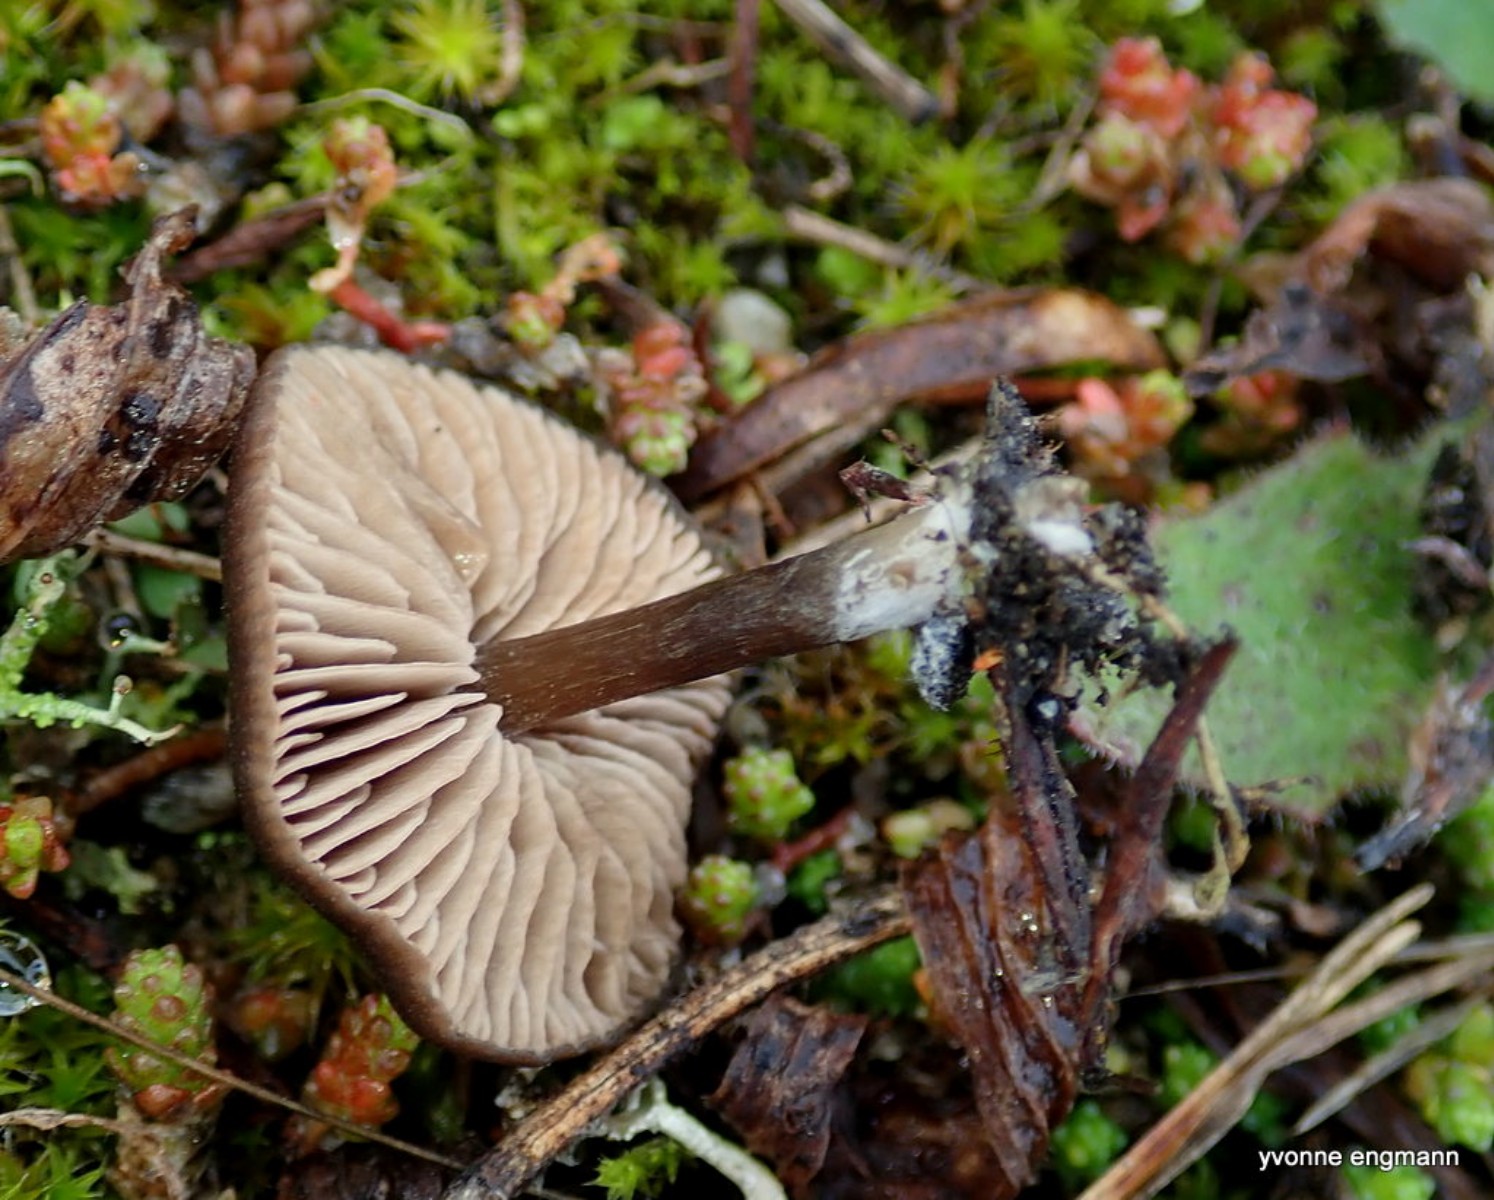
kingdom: Fungi
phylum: Basidiomycota
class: Agaricomycetes
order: Agaricales
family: Entolomataceae
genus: Entoloma
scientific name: Entoloma vindobonense
